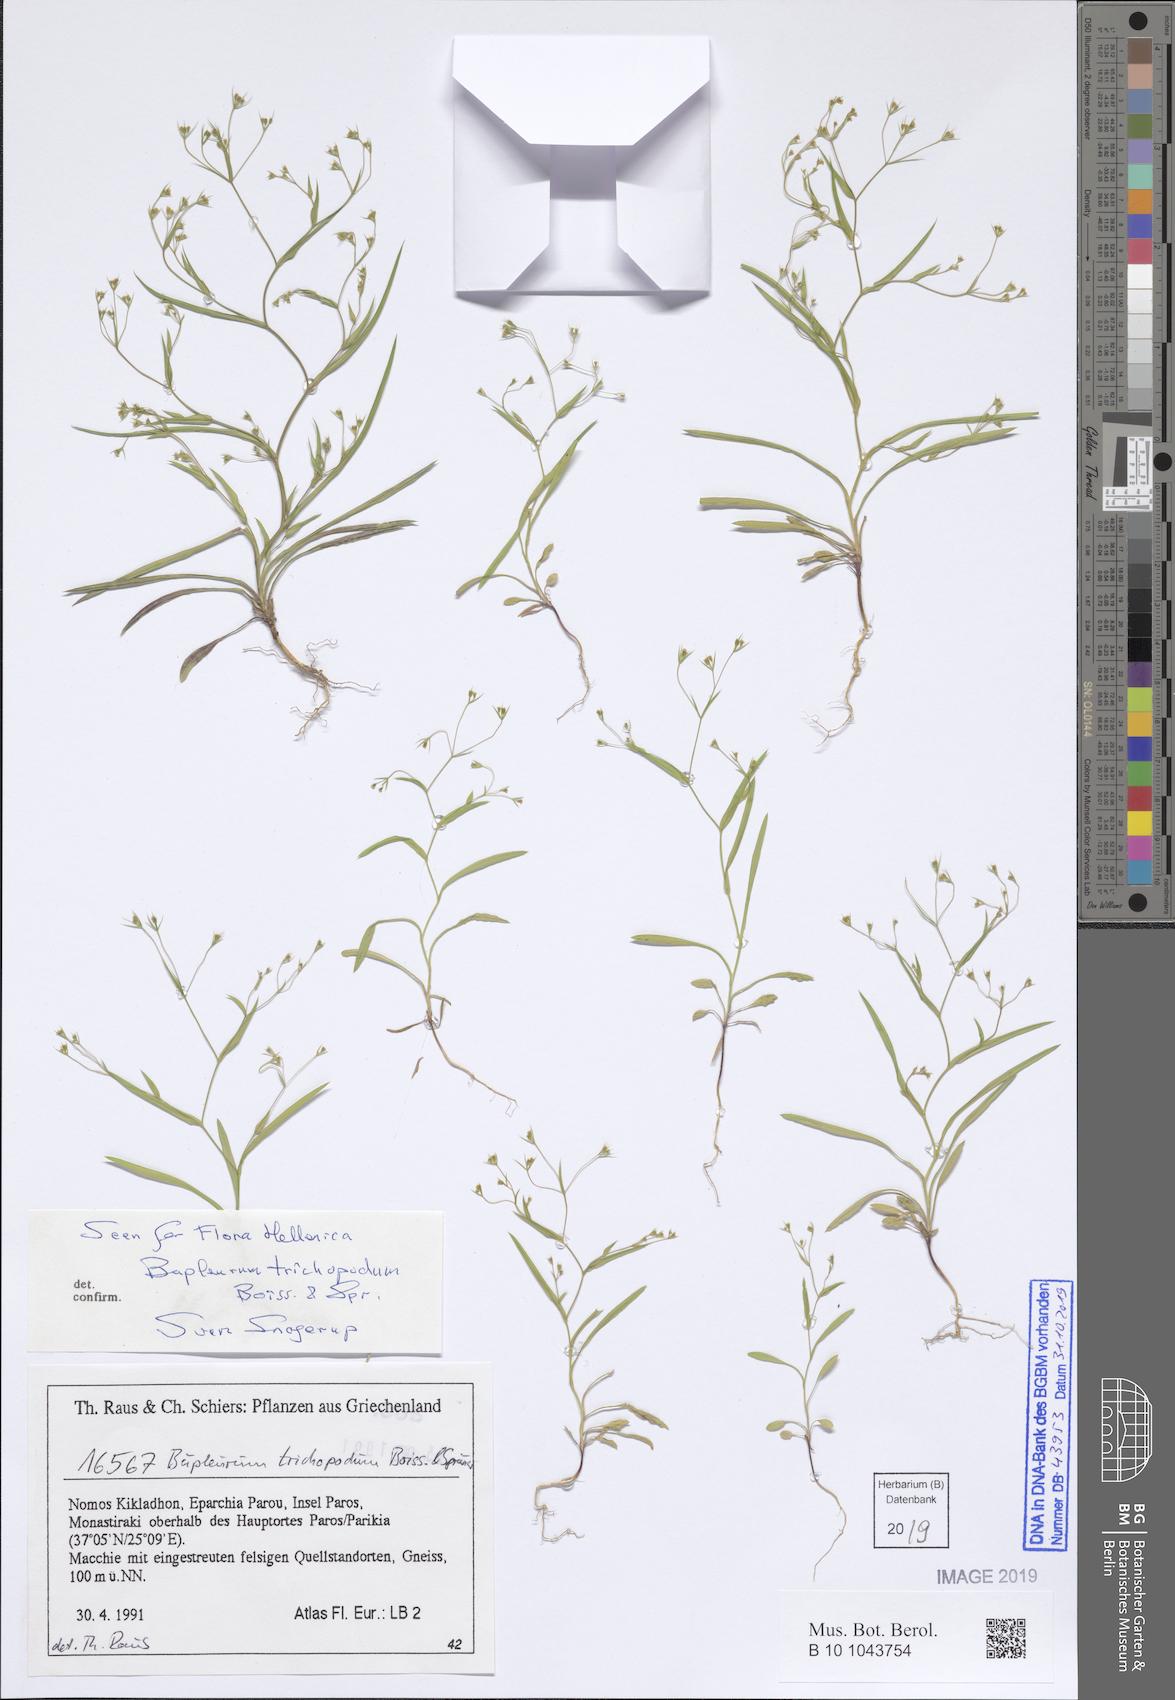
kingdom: Plantae
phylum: Tracheophyta
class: Magnoliopsida
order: Apiales
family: Apiaceae
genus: Bupleurum
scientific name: Bupleurum trichopodum
